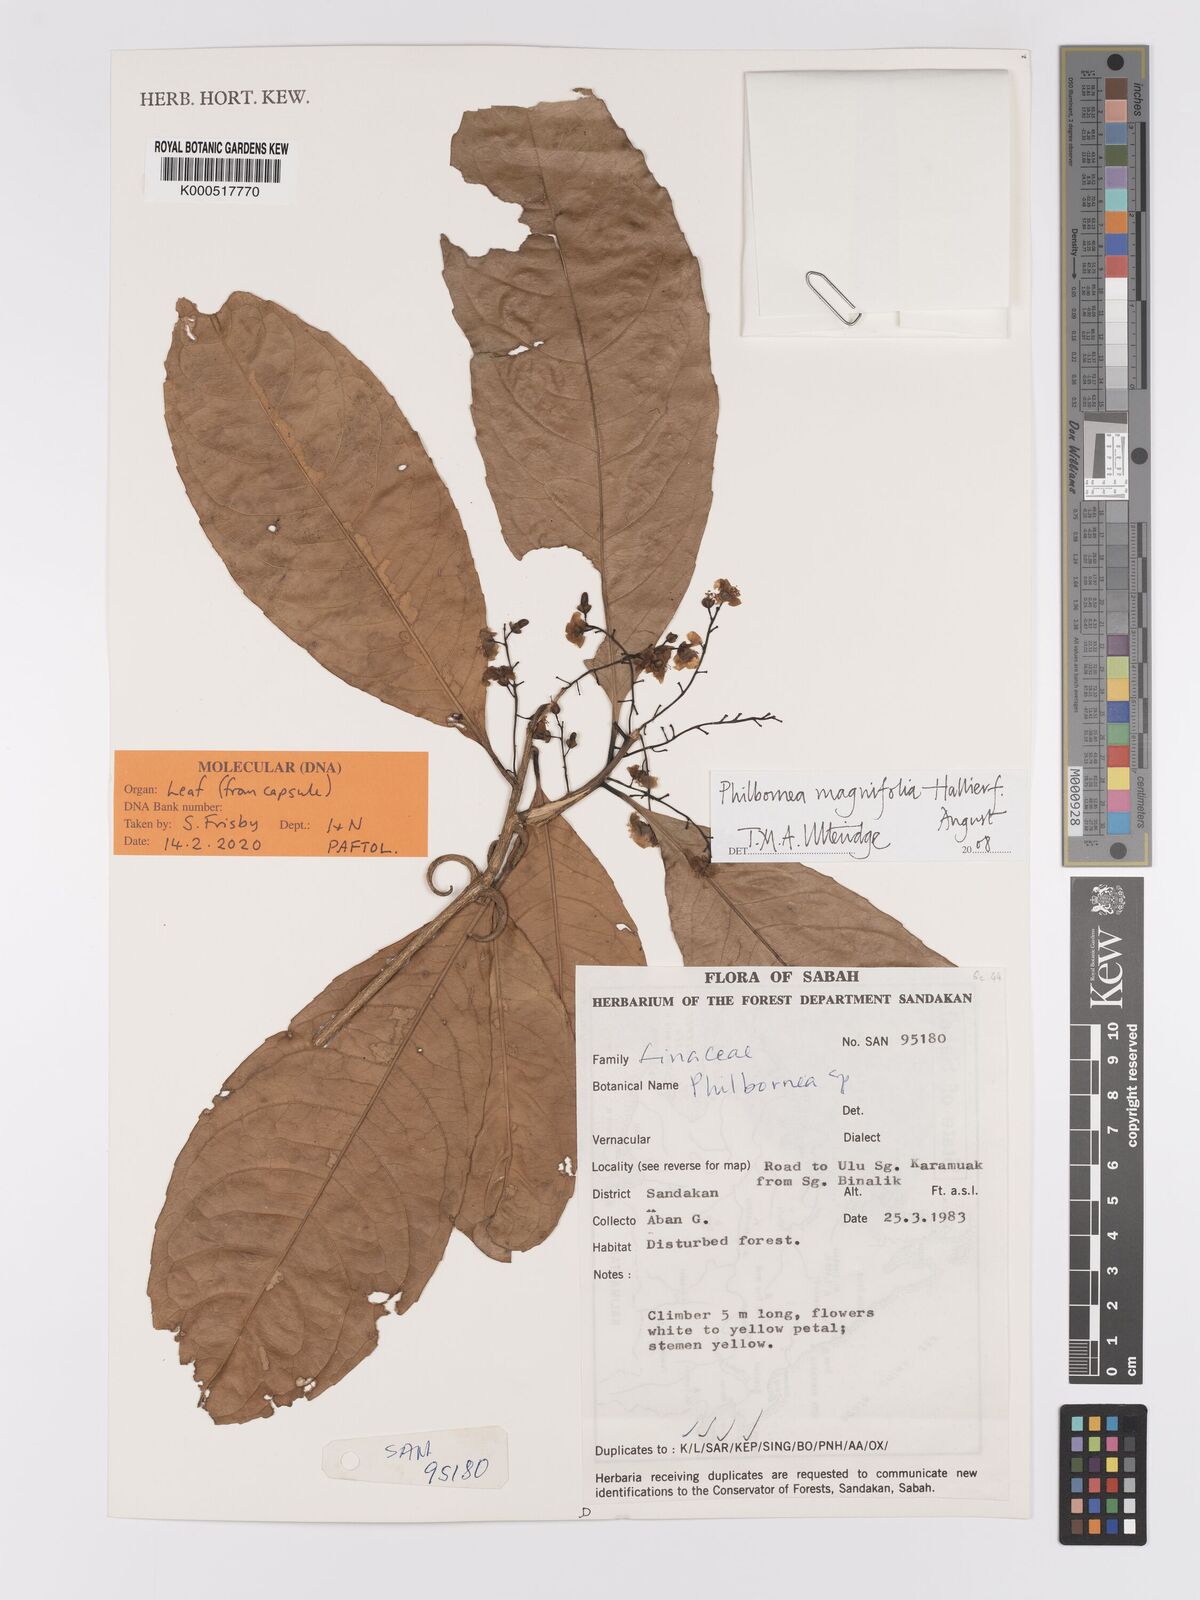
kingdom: Plantae
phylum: Tracheophyta
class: Magnoliopsida
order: Malpighiales
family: Linaceae
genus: Philbornea
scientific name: Philbornea magnifolia
